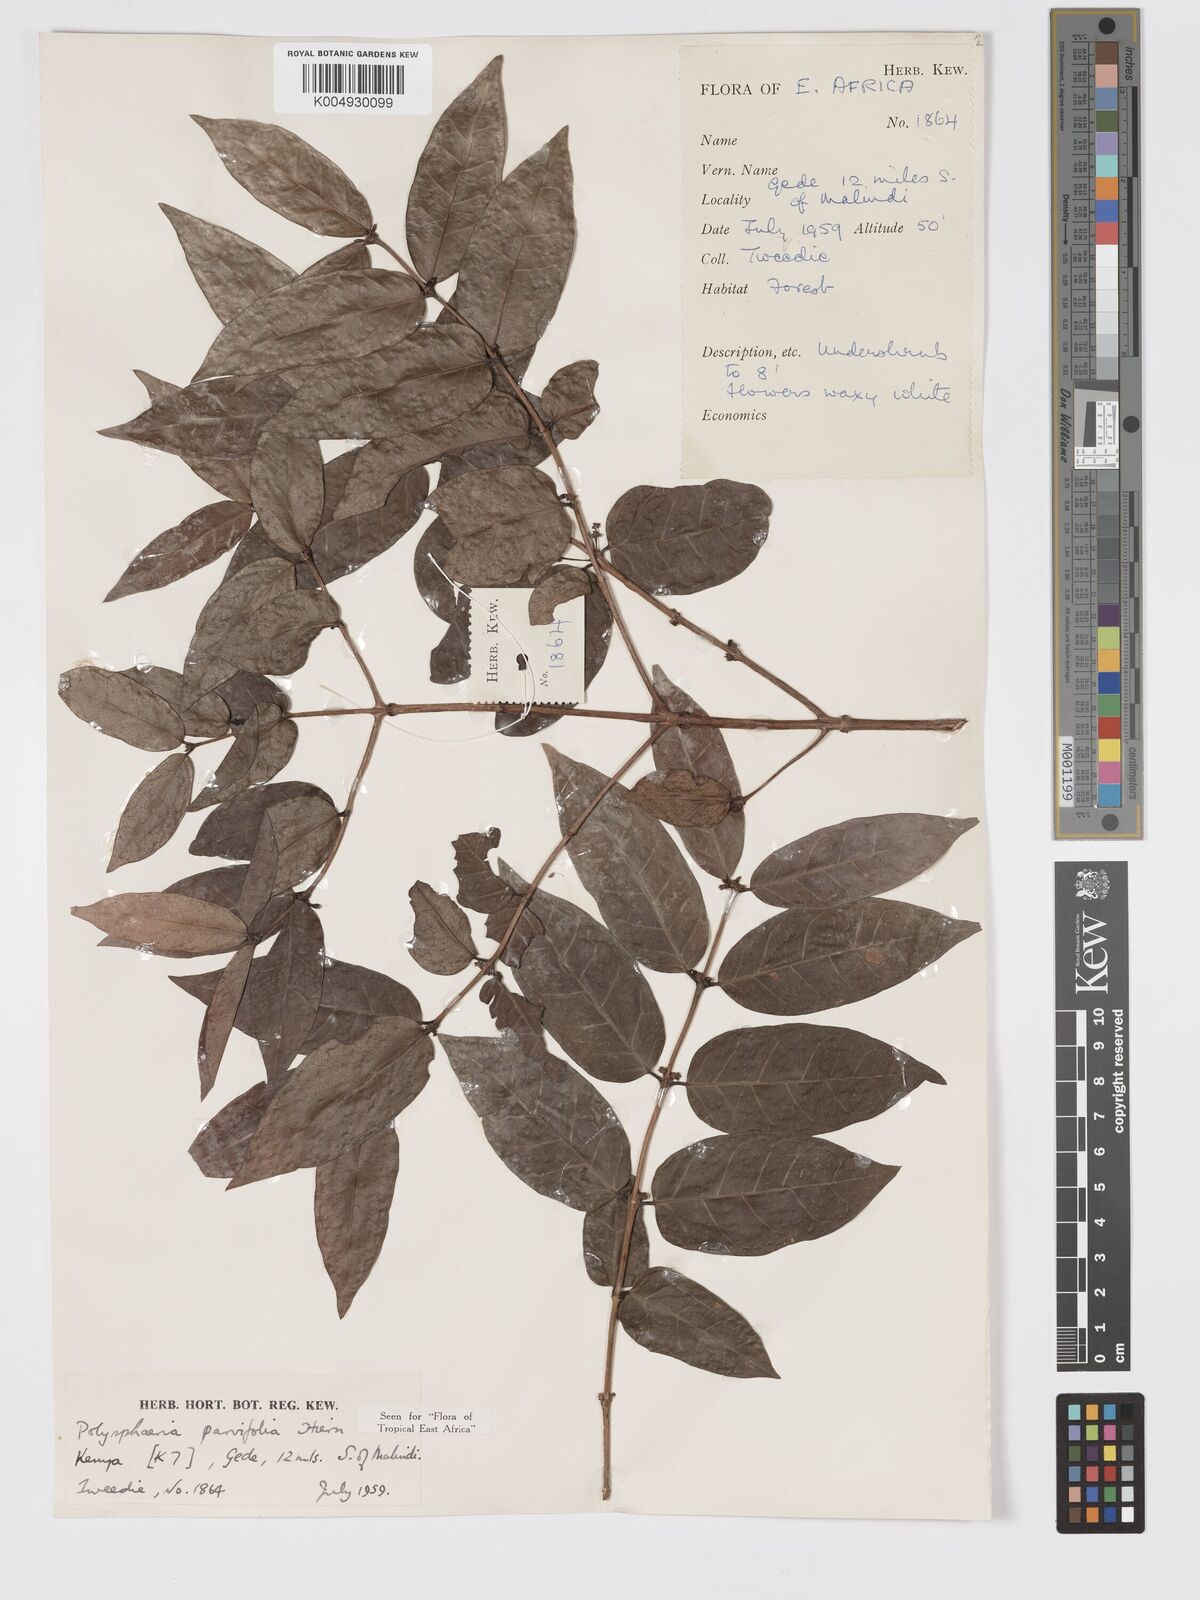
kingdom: Plantae
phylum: Tracheophyta
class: Magnoliopsida
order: Gentianales
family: Rubiaceae
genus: Eumachia
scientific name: Eumachia parviflora
